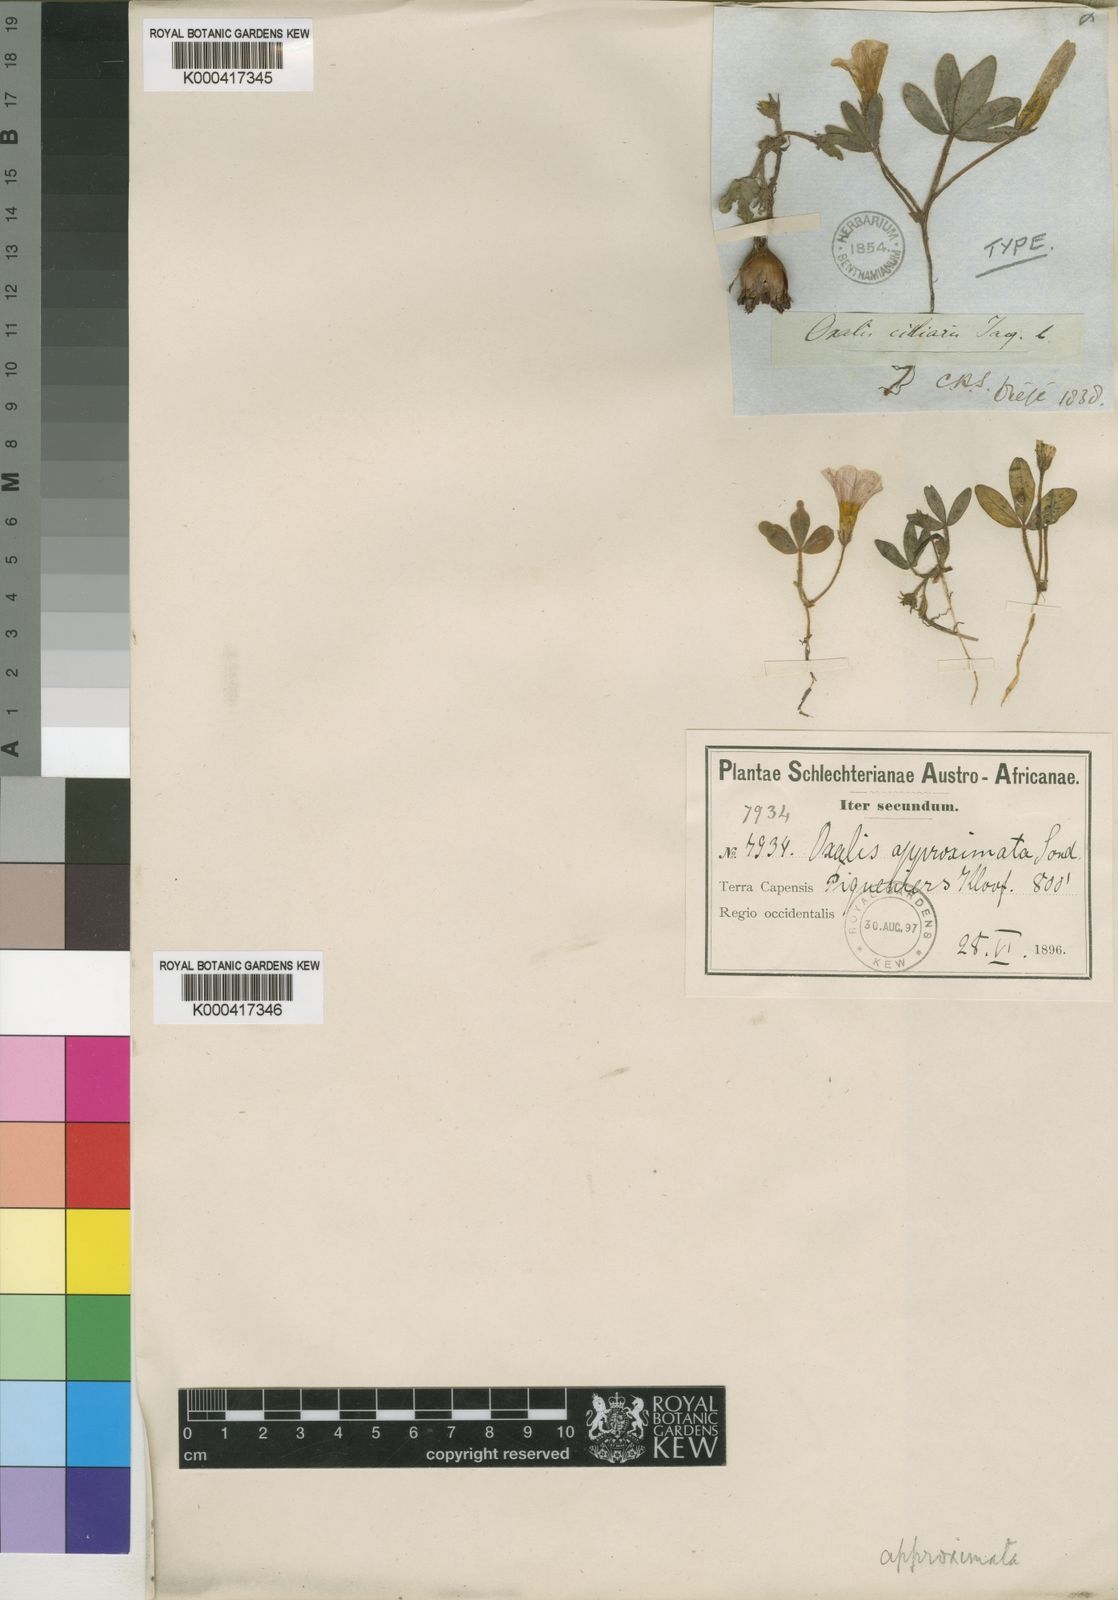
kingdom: Plantae
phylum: Tracheophyta
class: Magnoliopsida
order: Oxalidales
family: Oxalidaceae
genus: Oxalis
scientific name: Oxalis eckloniana
